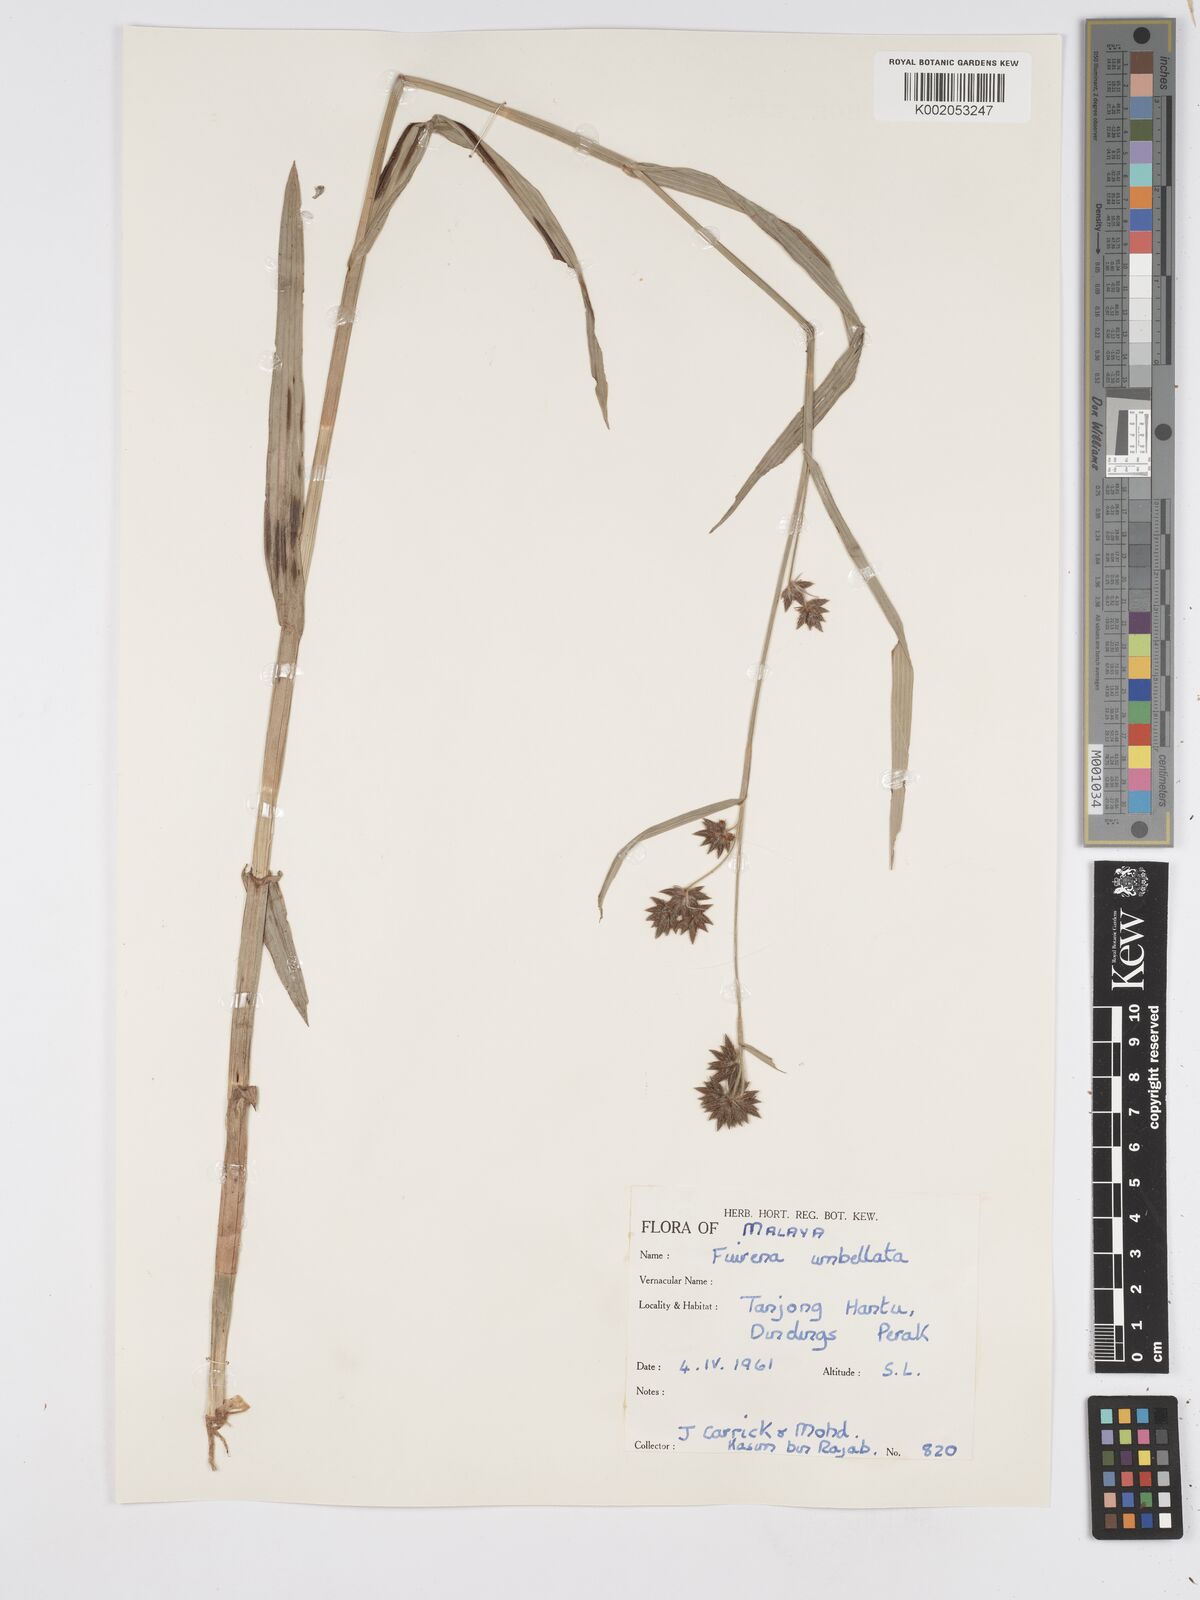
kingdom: Plantae
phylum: Tracheophyta
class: Liliopsida
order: Poales
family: Cyperaceae
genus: Fuirena
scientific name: Fuirena umbellata
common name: Yefen
